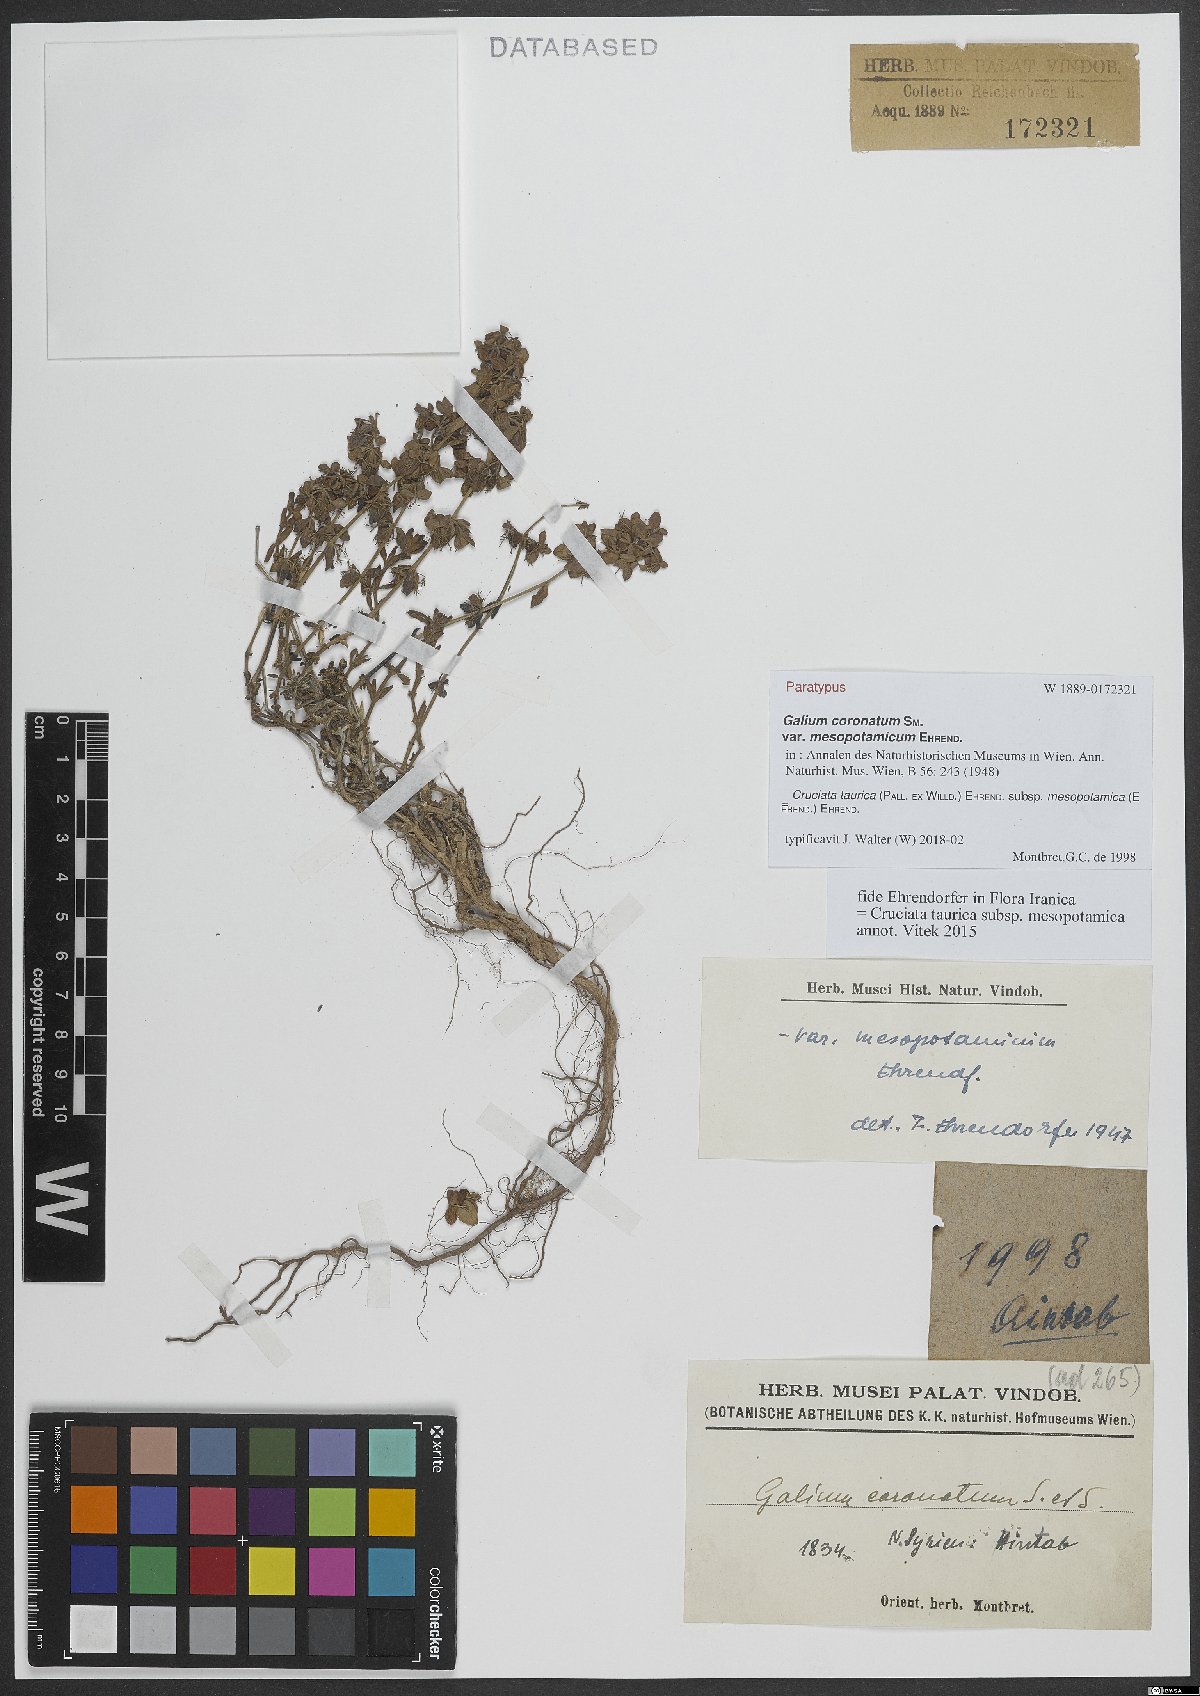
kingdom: Plantae
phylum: Tracheophyta
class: Magnoliopsida
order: Gentianales
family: Rubiaceae
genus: Cruciata
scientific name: Cruciata taurica
